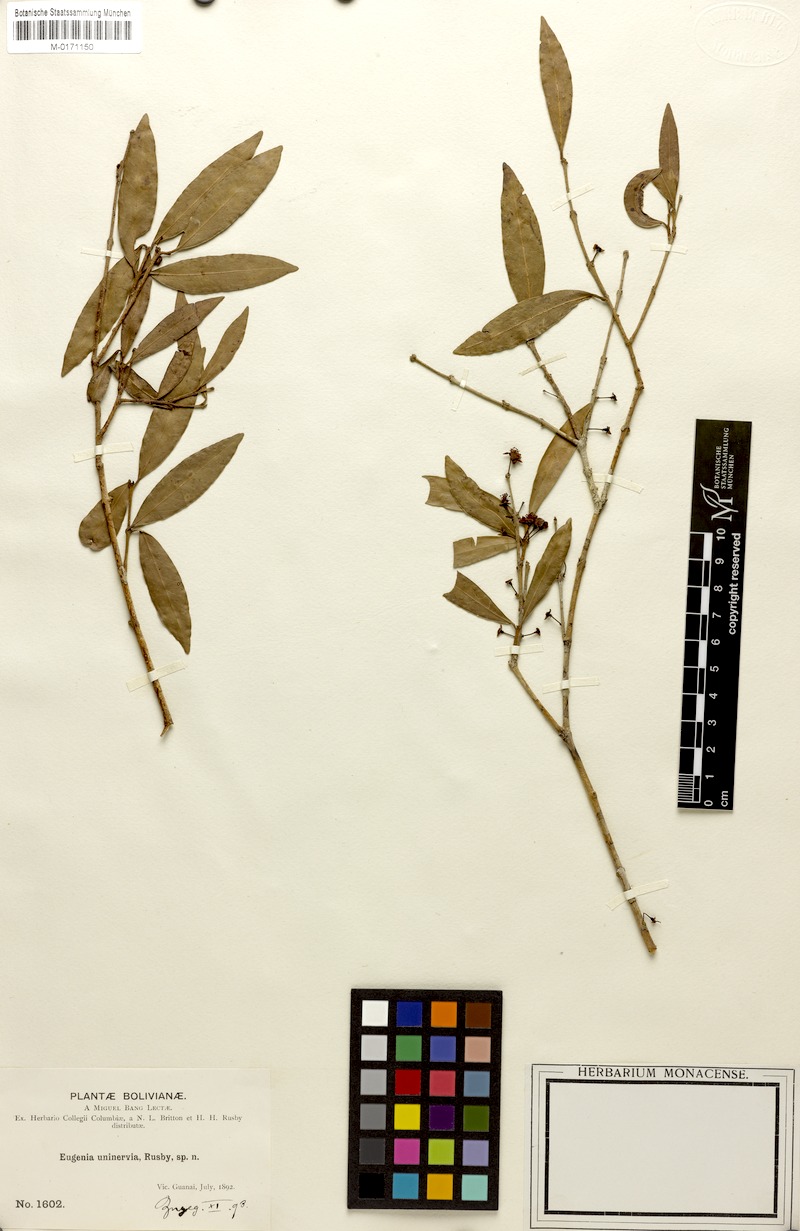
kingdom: Plantae
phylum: Tracheophyta
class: Magnoliopsida
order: Myrtales
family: Myrtaceae
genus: Eugenia
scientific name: Eugenia uninervia
